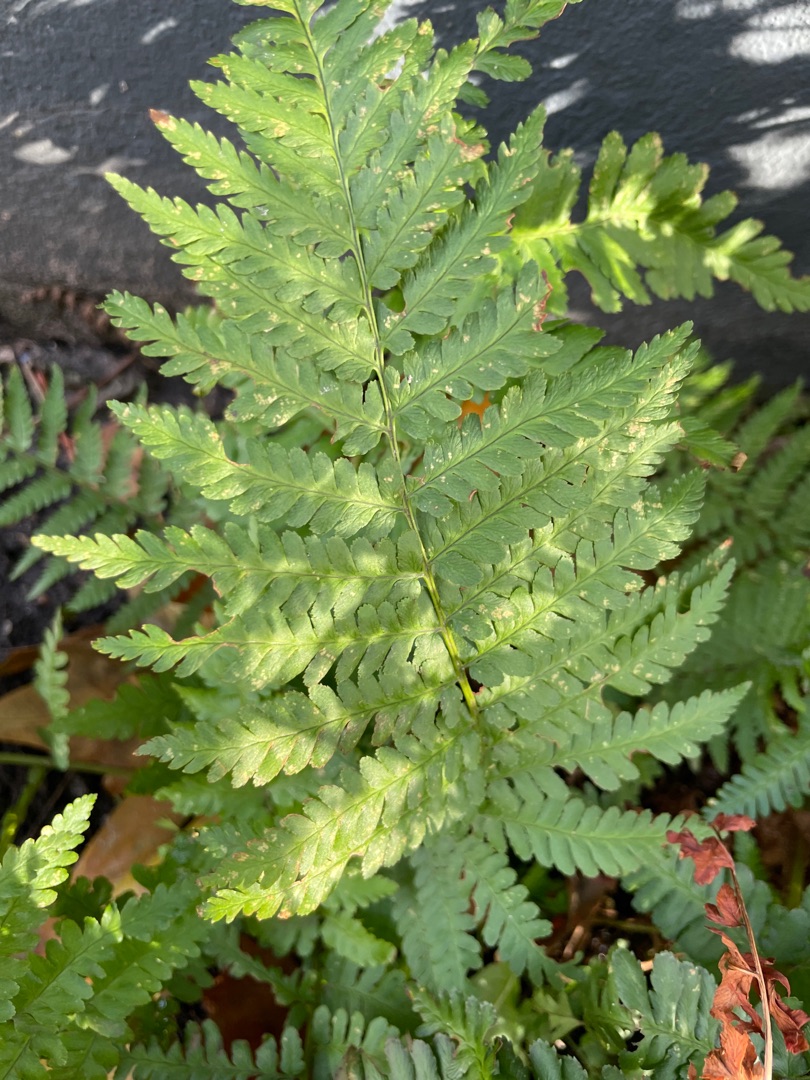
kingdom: Plantae
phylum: Tracheophyta
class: Polypodiopsida
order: Polypodiales
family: Dryopteridaceae
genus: Dryopteris
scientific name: Dryopteris filix-mas
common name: Almindelig mangeløv
